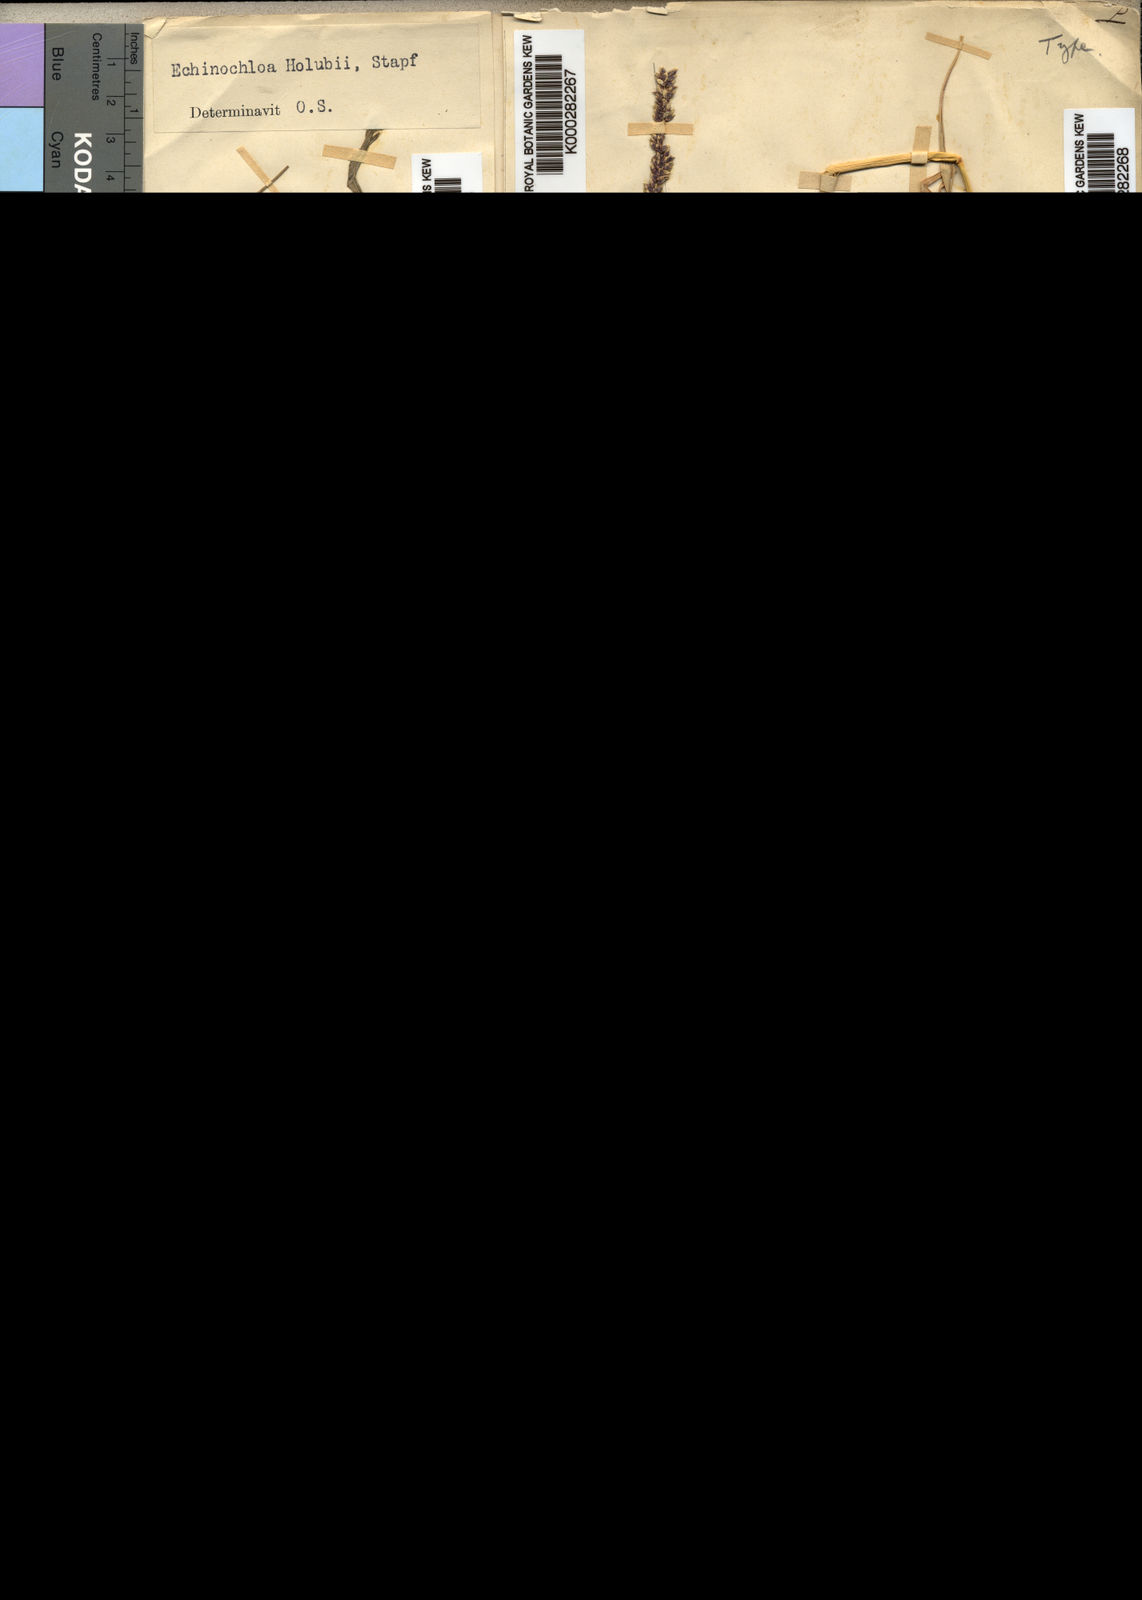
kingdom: Plantae
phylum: Tracheophyta
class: Liliopsida
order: Poales
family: Poaceae
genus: Echinochloa
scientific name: Echinochloa pyramidalis
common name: Antelope grass
